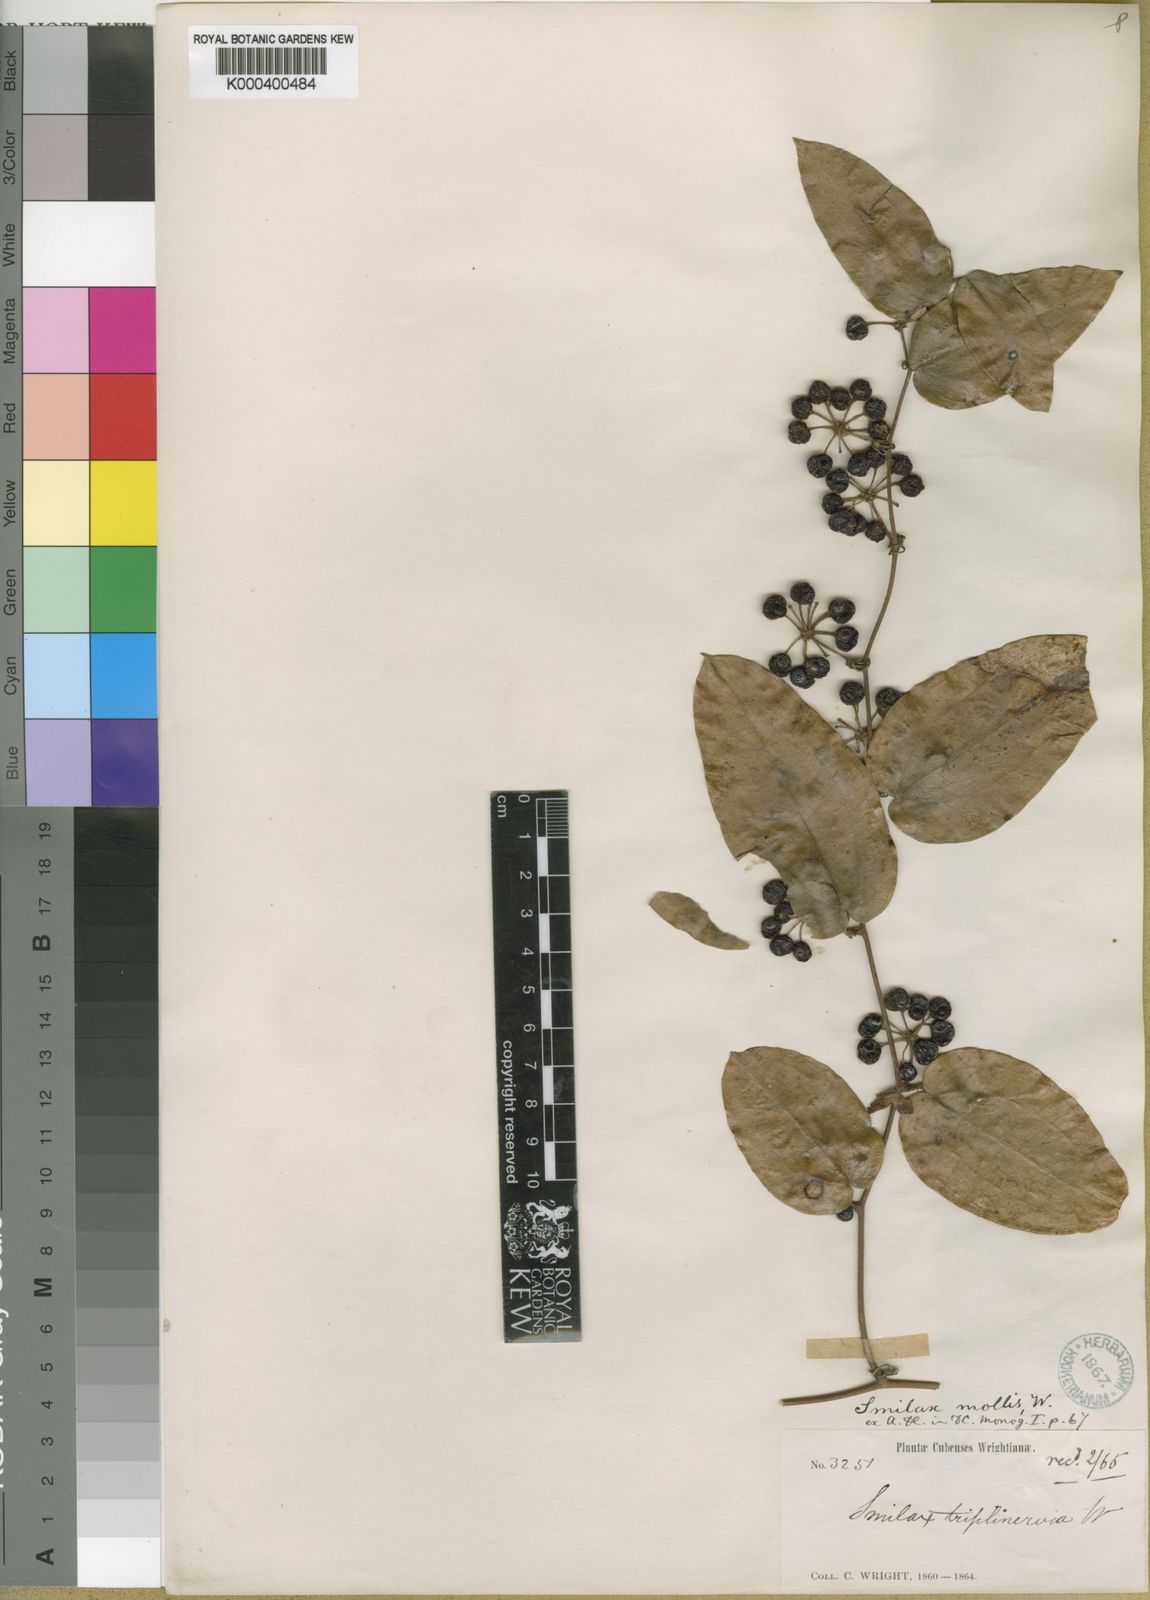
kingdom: Plantae
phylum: Tracheophyta
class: Liliopsida
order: Liliales
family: Smilacaceae
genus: Smilax
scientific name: Smilax mollis
